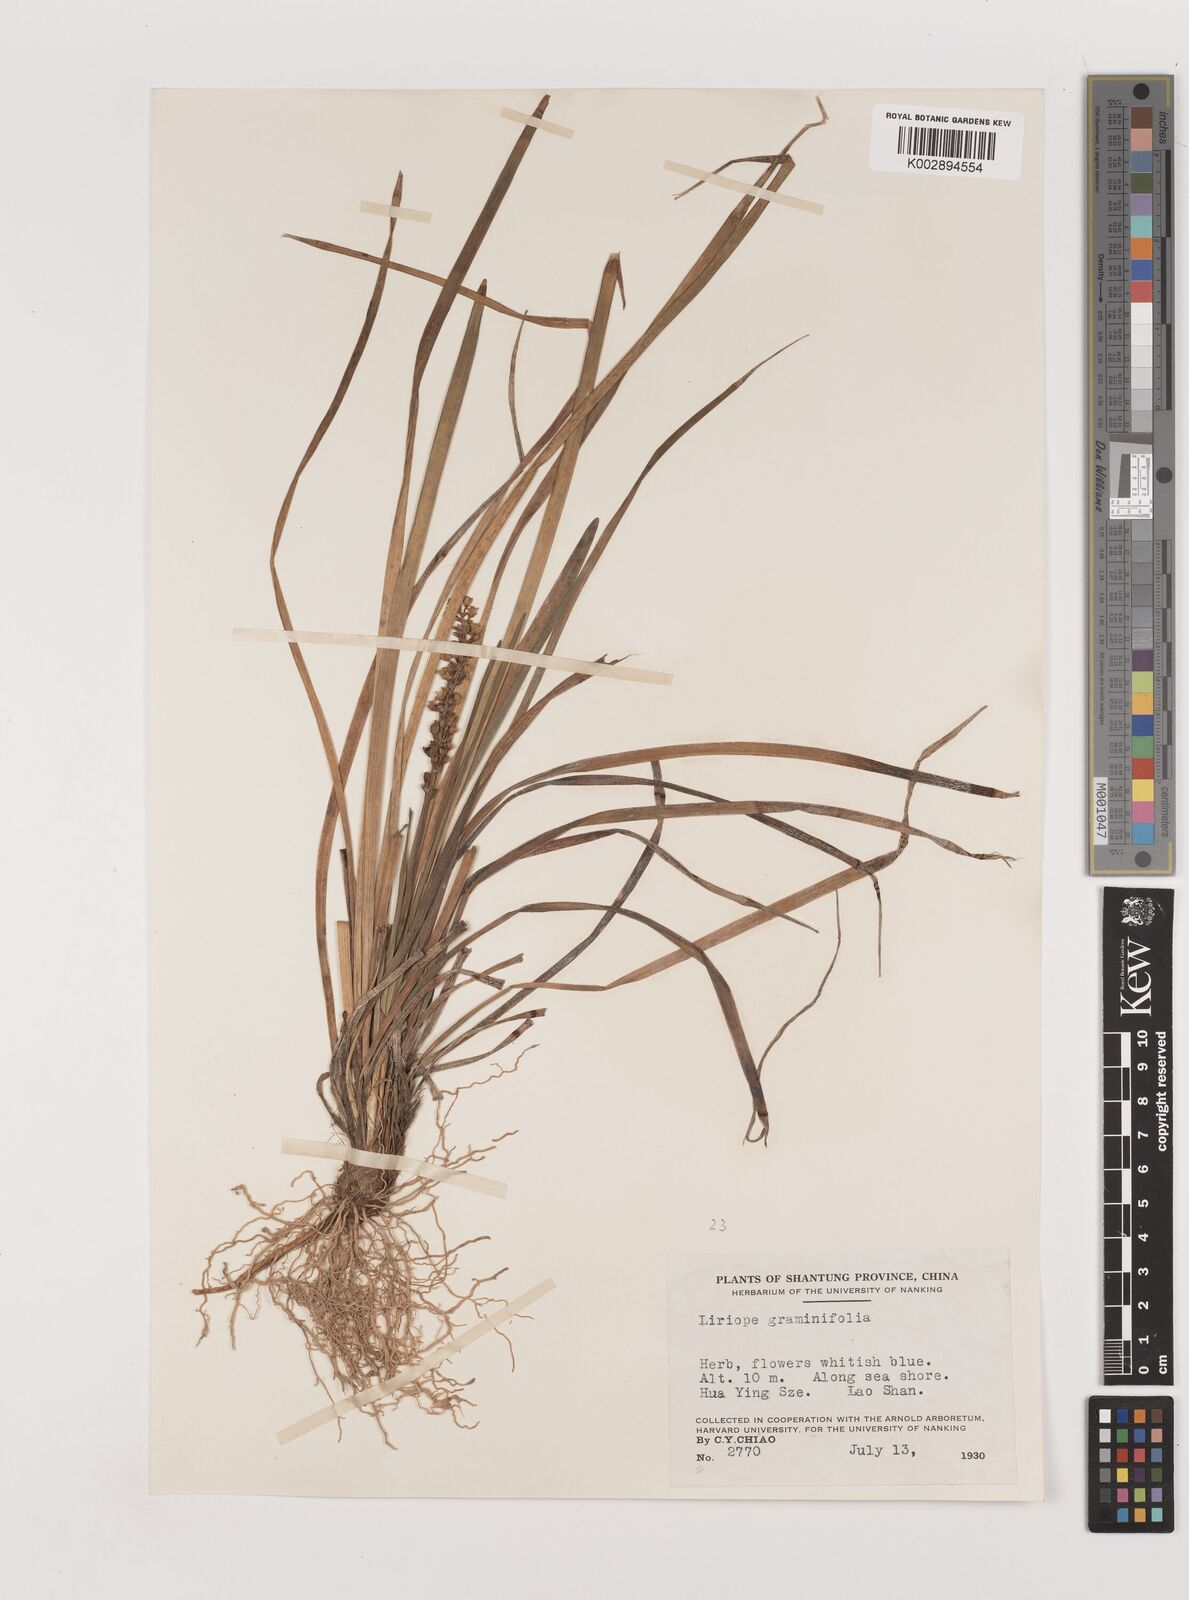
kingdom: Plantae
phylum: Tracheophyta
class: Liliopsida
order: Asparagales
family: Asparagaceae
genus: Liriope
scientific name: Liriope spicata
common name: Creeping liriope
